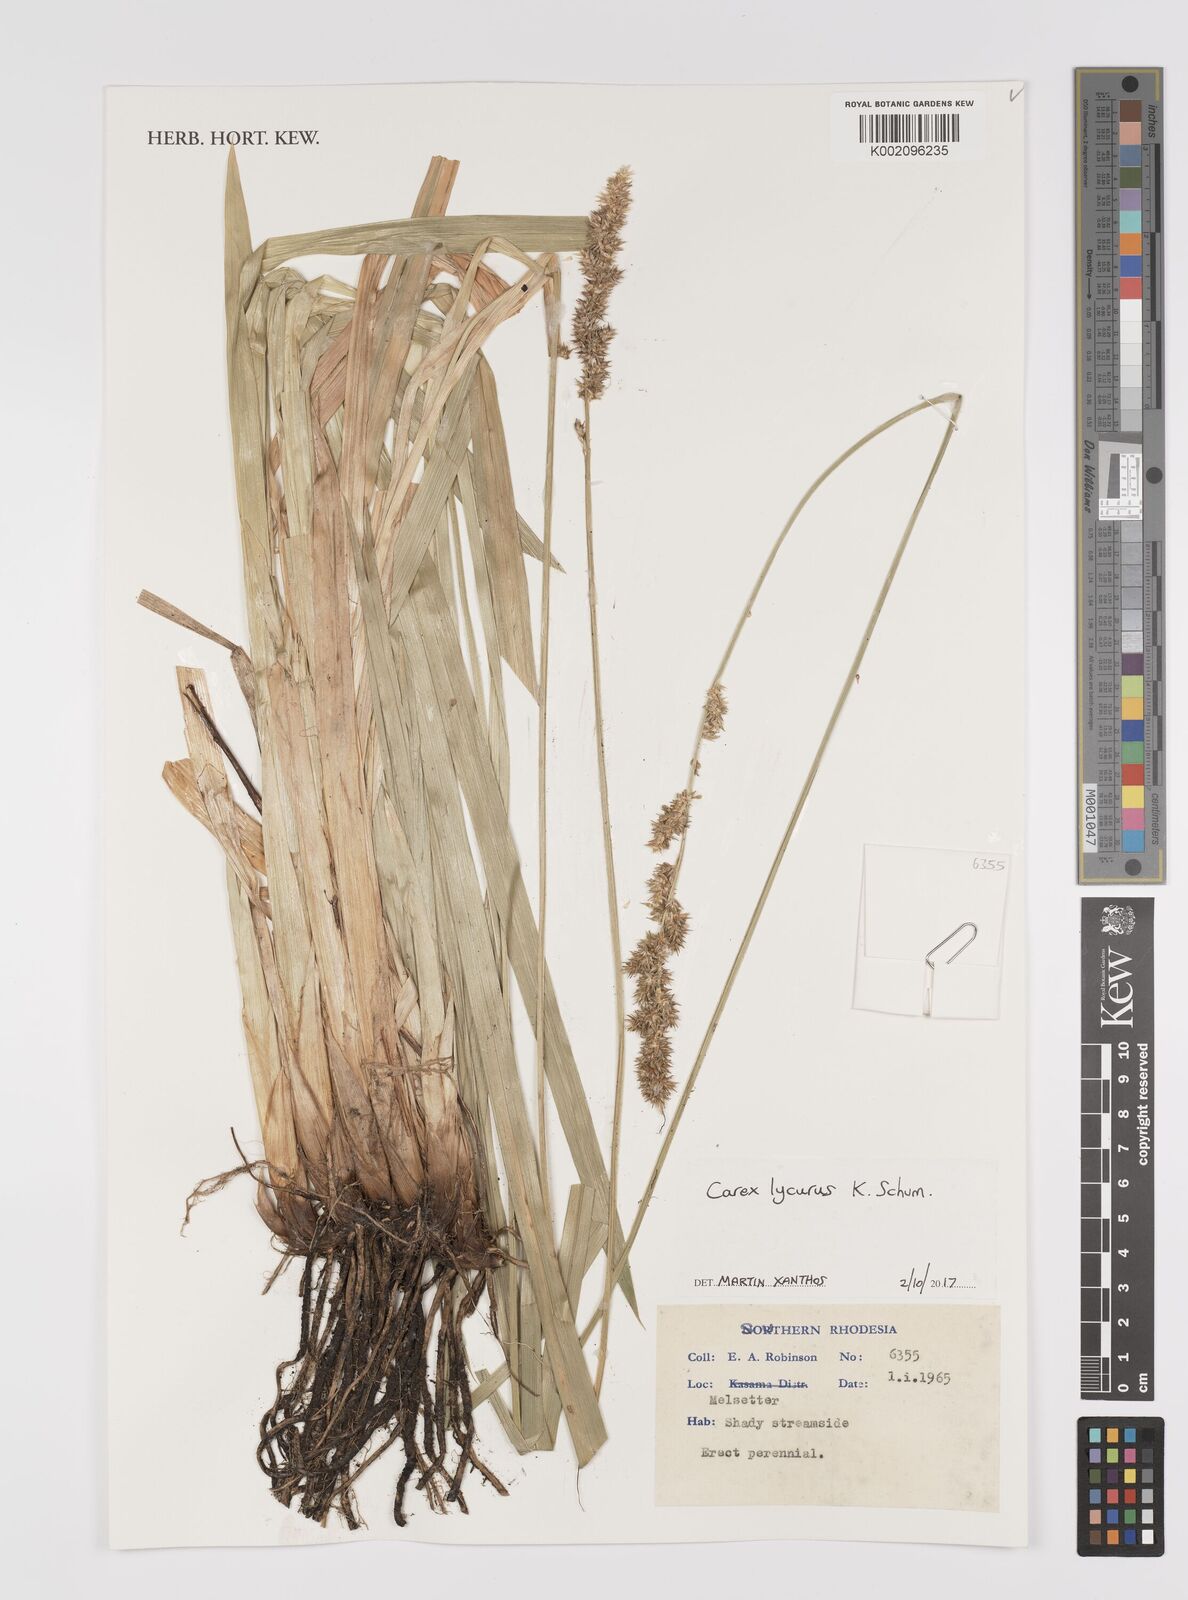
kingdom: Plantae
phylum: Tracheophyta
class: Liliopsida
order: Poales
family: Cyperaceae
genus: Carex
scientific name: Carex lycurus
